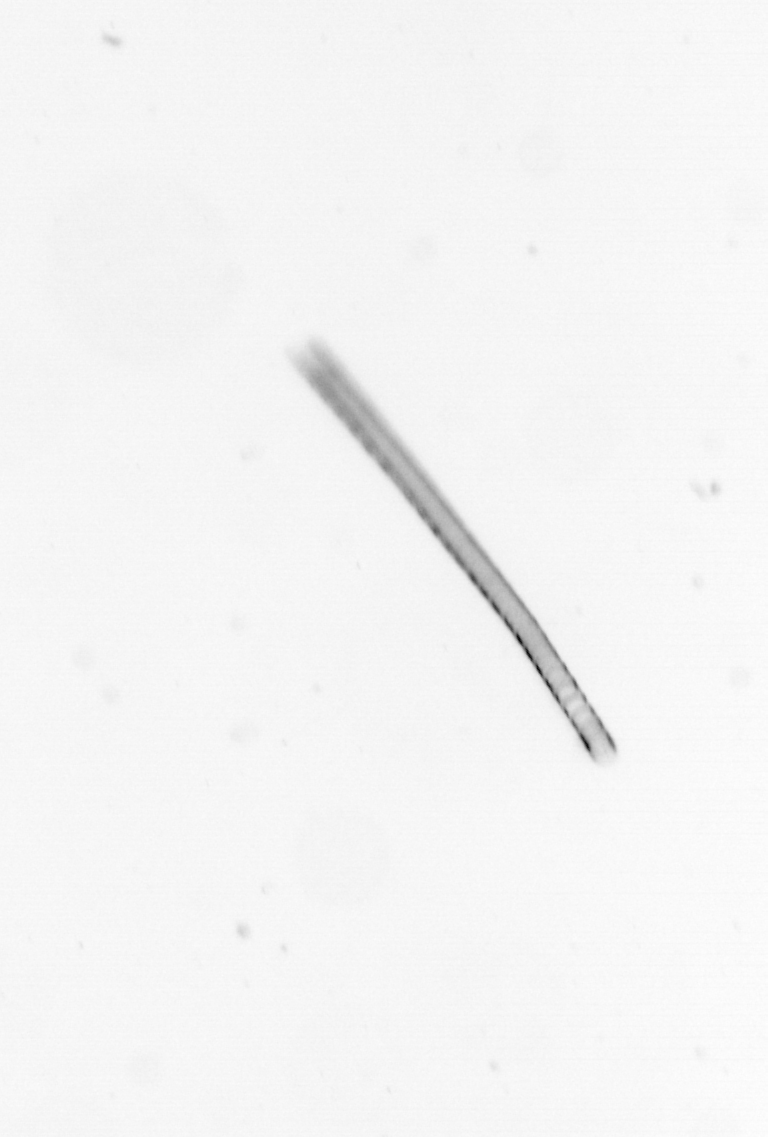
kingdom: Chromista
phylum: Ochrophyta
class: Bacillariophyceae
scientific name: Bacillariophyceae
